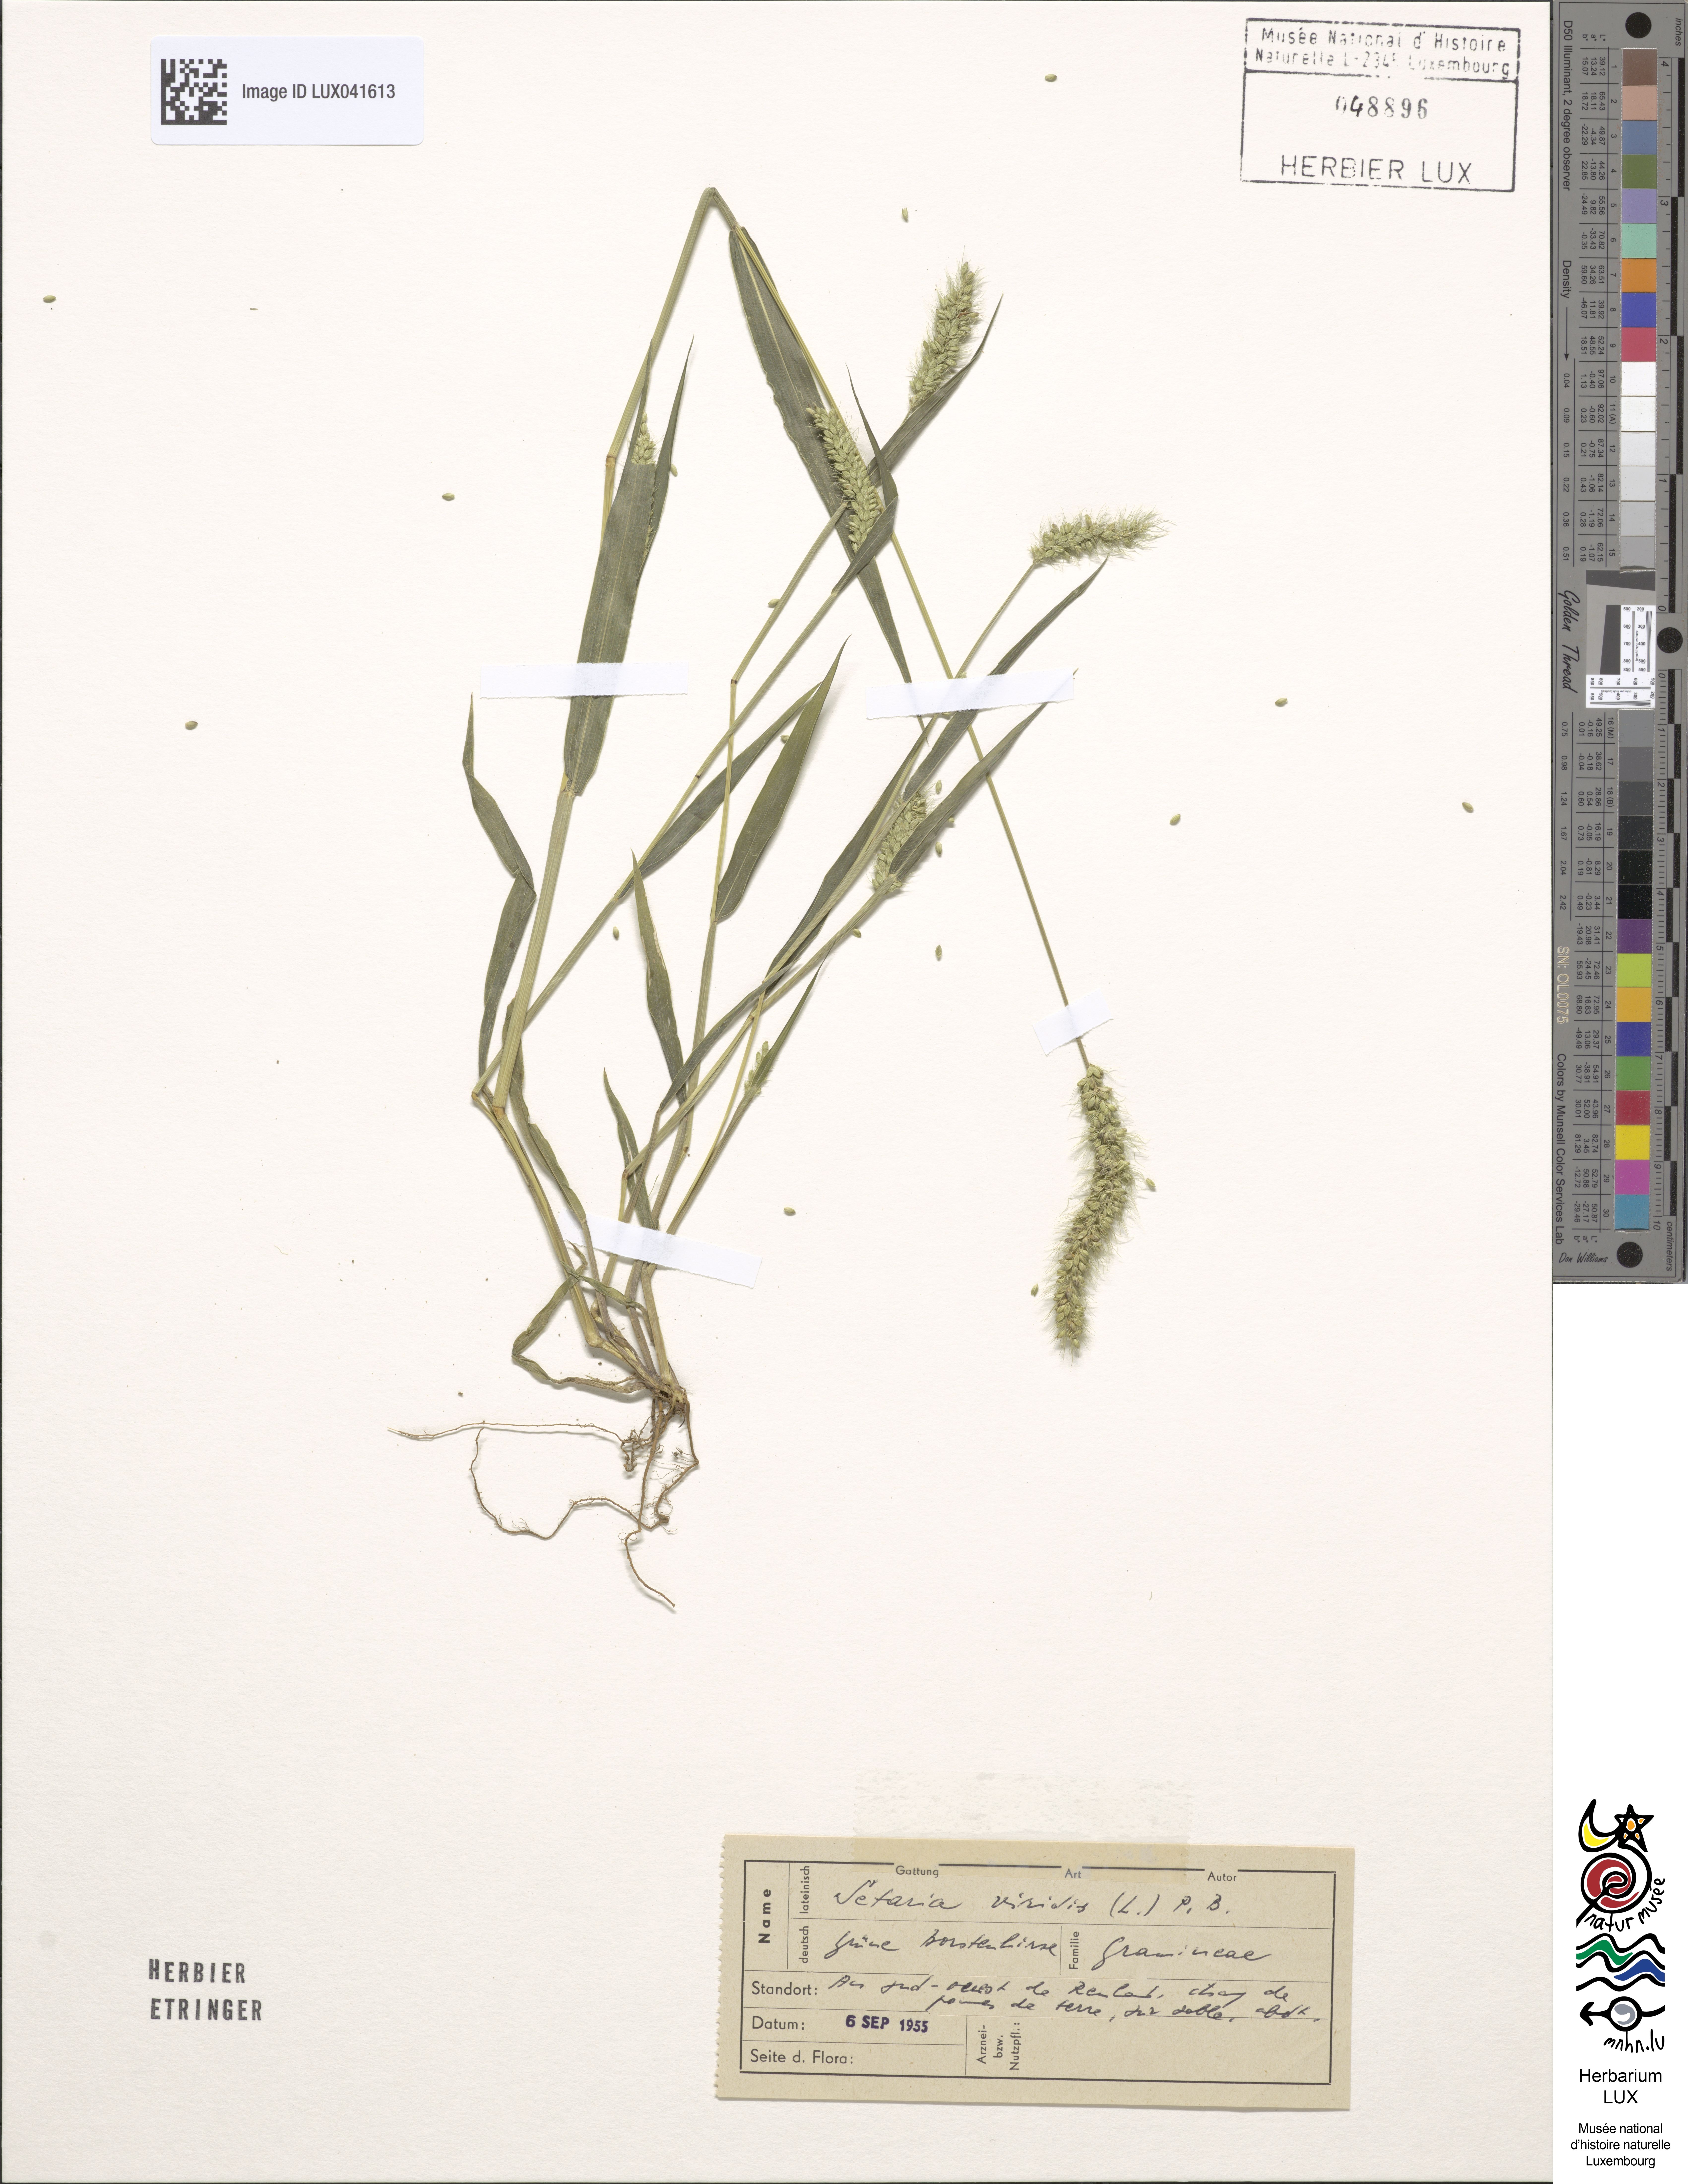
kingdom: Plantae
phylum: Tracheophyta
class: Liliopsida
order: Poales
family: Poaceae
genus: Setaria
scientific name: Setaria viridis
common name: Green bristlegrass
